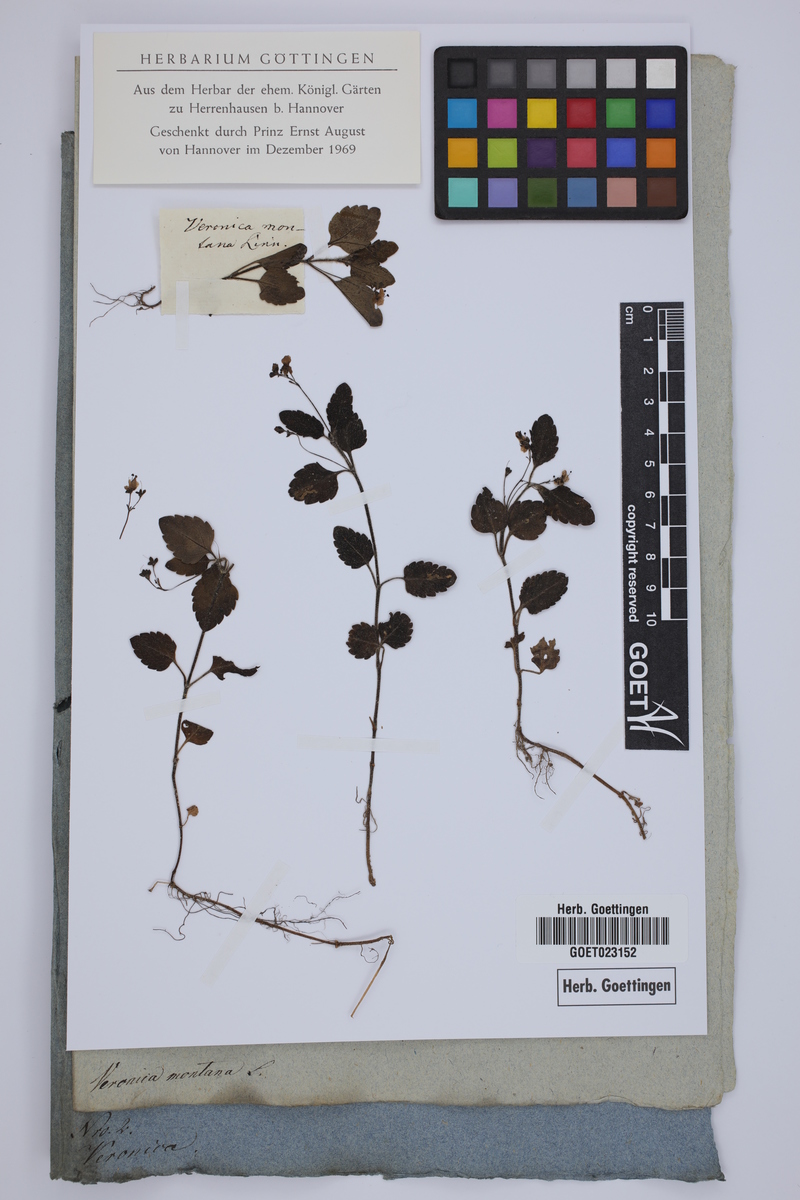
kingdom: Plantae
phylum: Tracheophyta
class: Magnoliopsida
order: Lamiales
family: Plantaginaceae
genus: Veronica
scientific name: Veronica montana
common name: Wood speedwell
